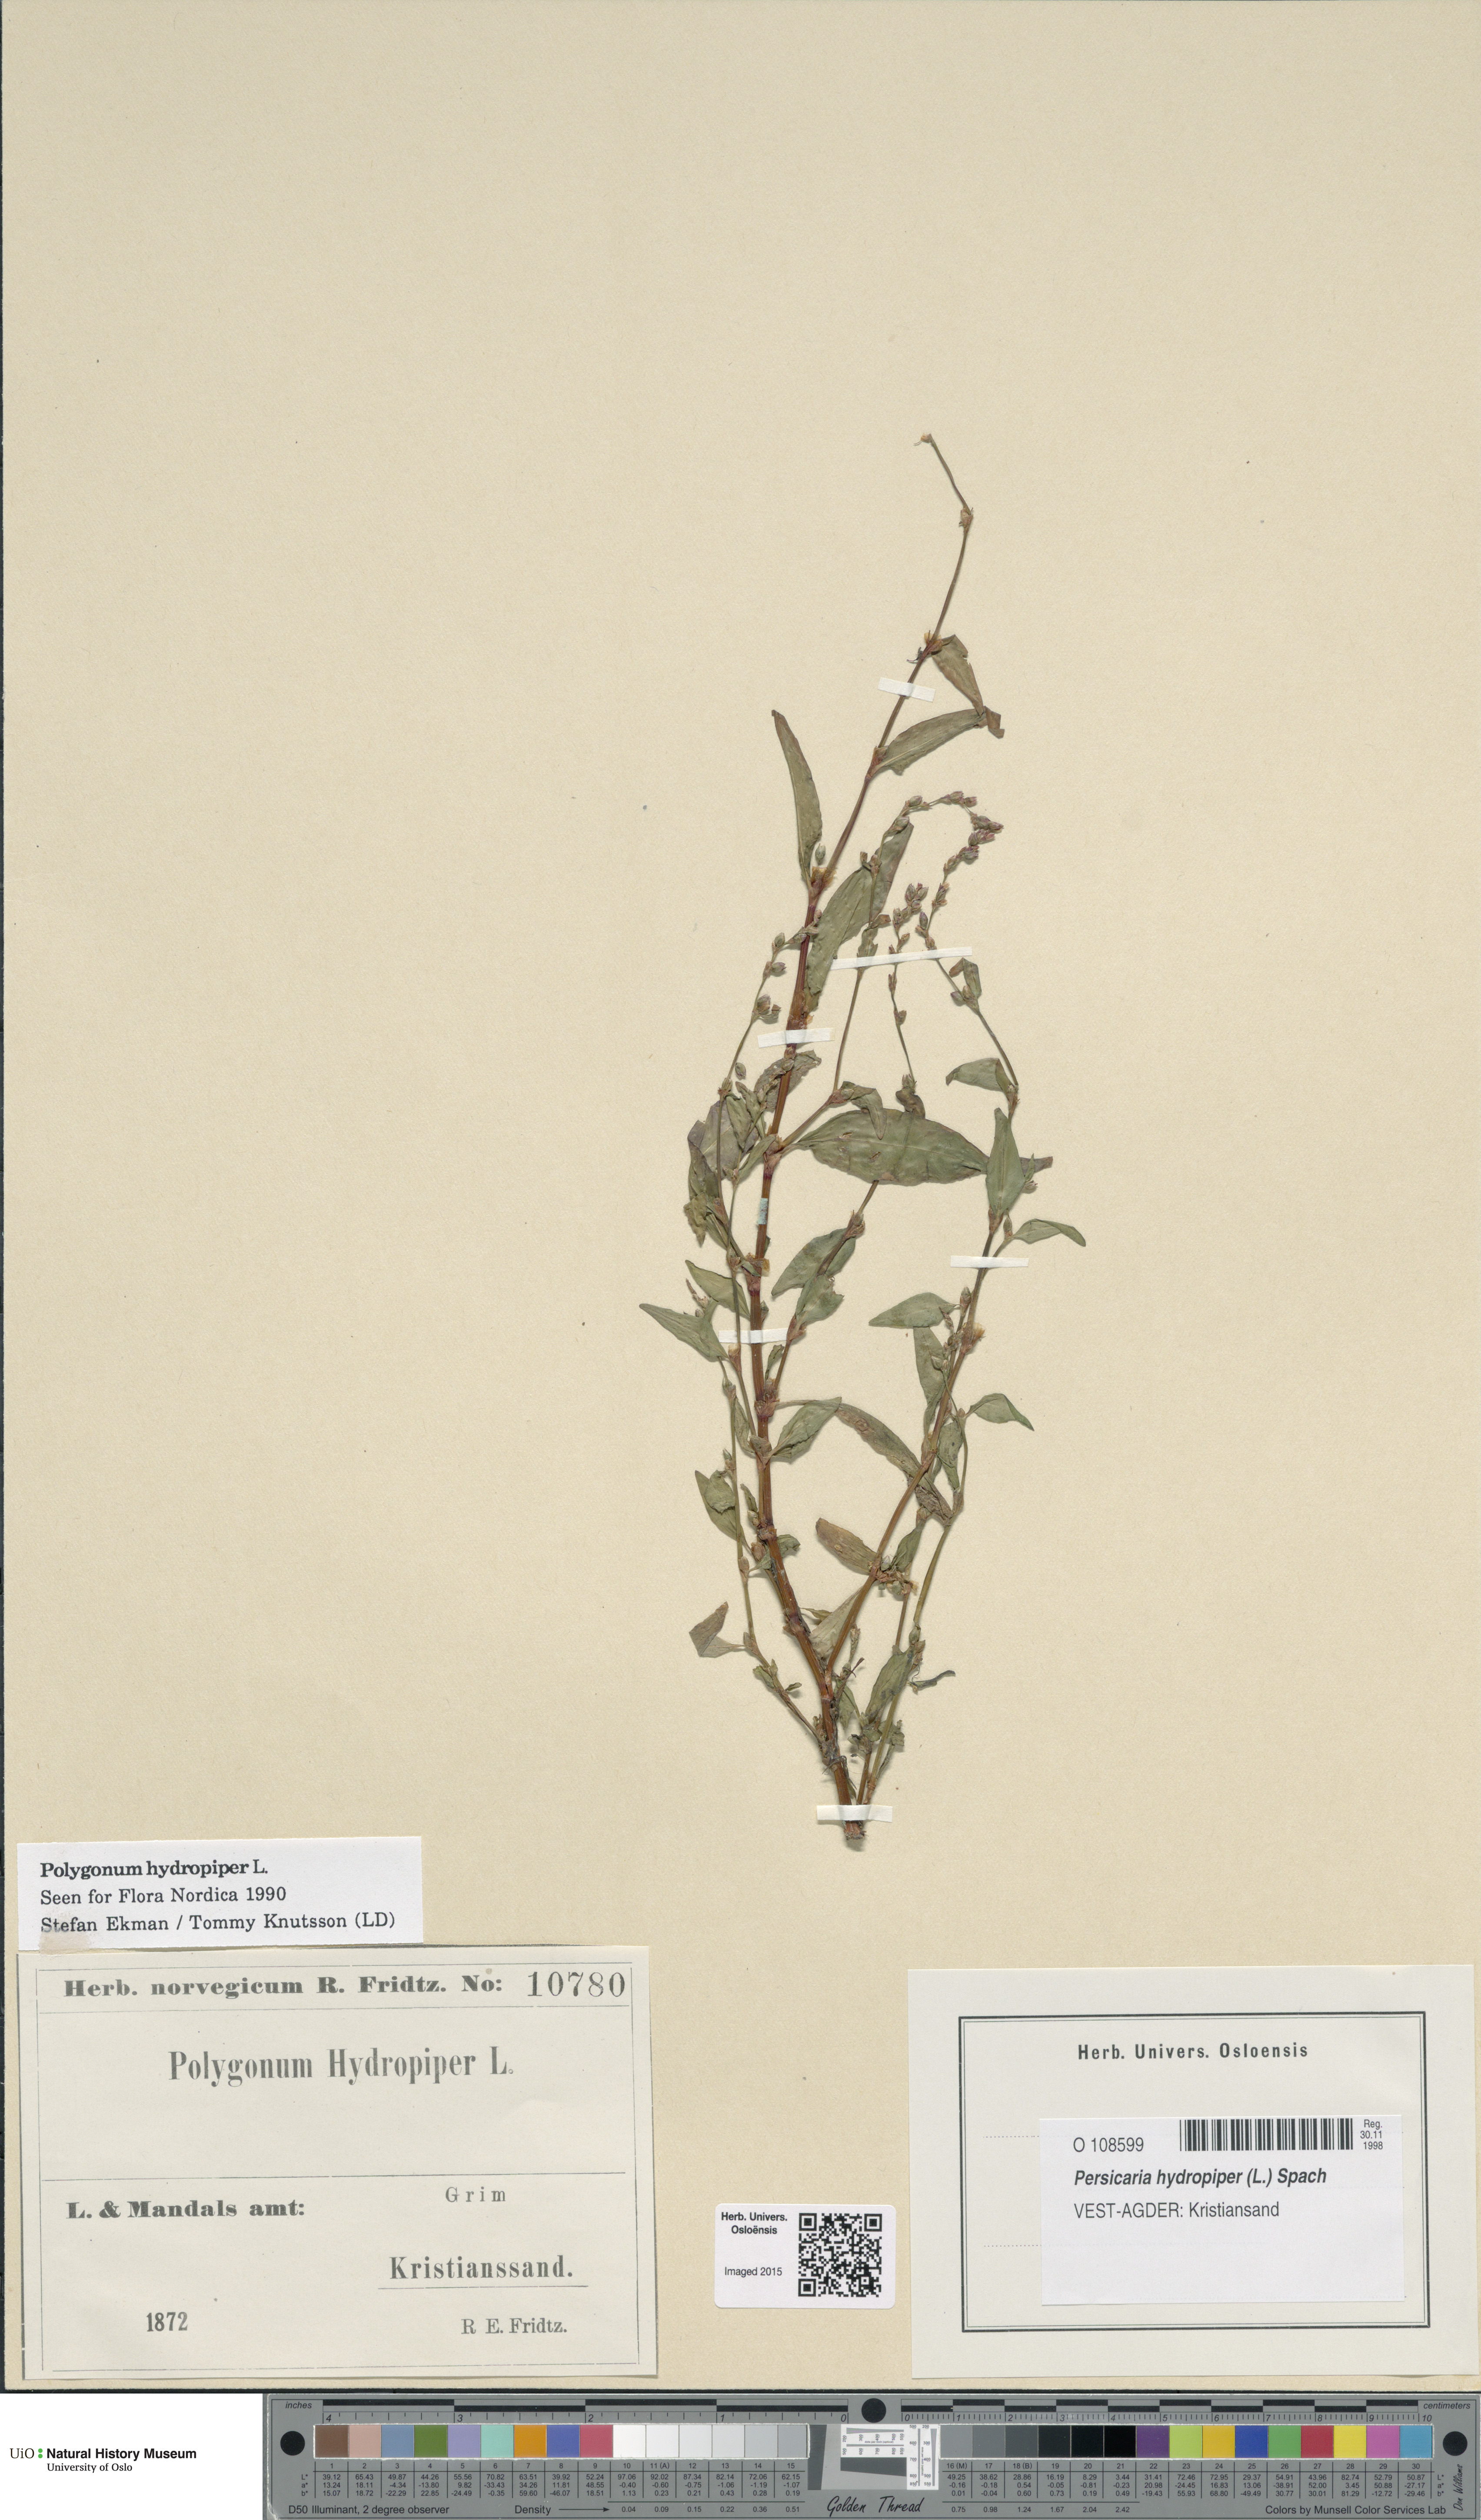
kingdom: Plantae
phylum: Tracheophyta
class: Magnoliopsida
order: Caryophyllales
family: Polygonaceae
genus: Persicaria
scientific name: Persicaria hydropiper
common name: Water-pepper
